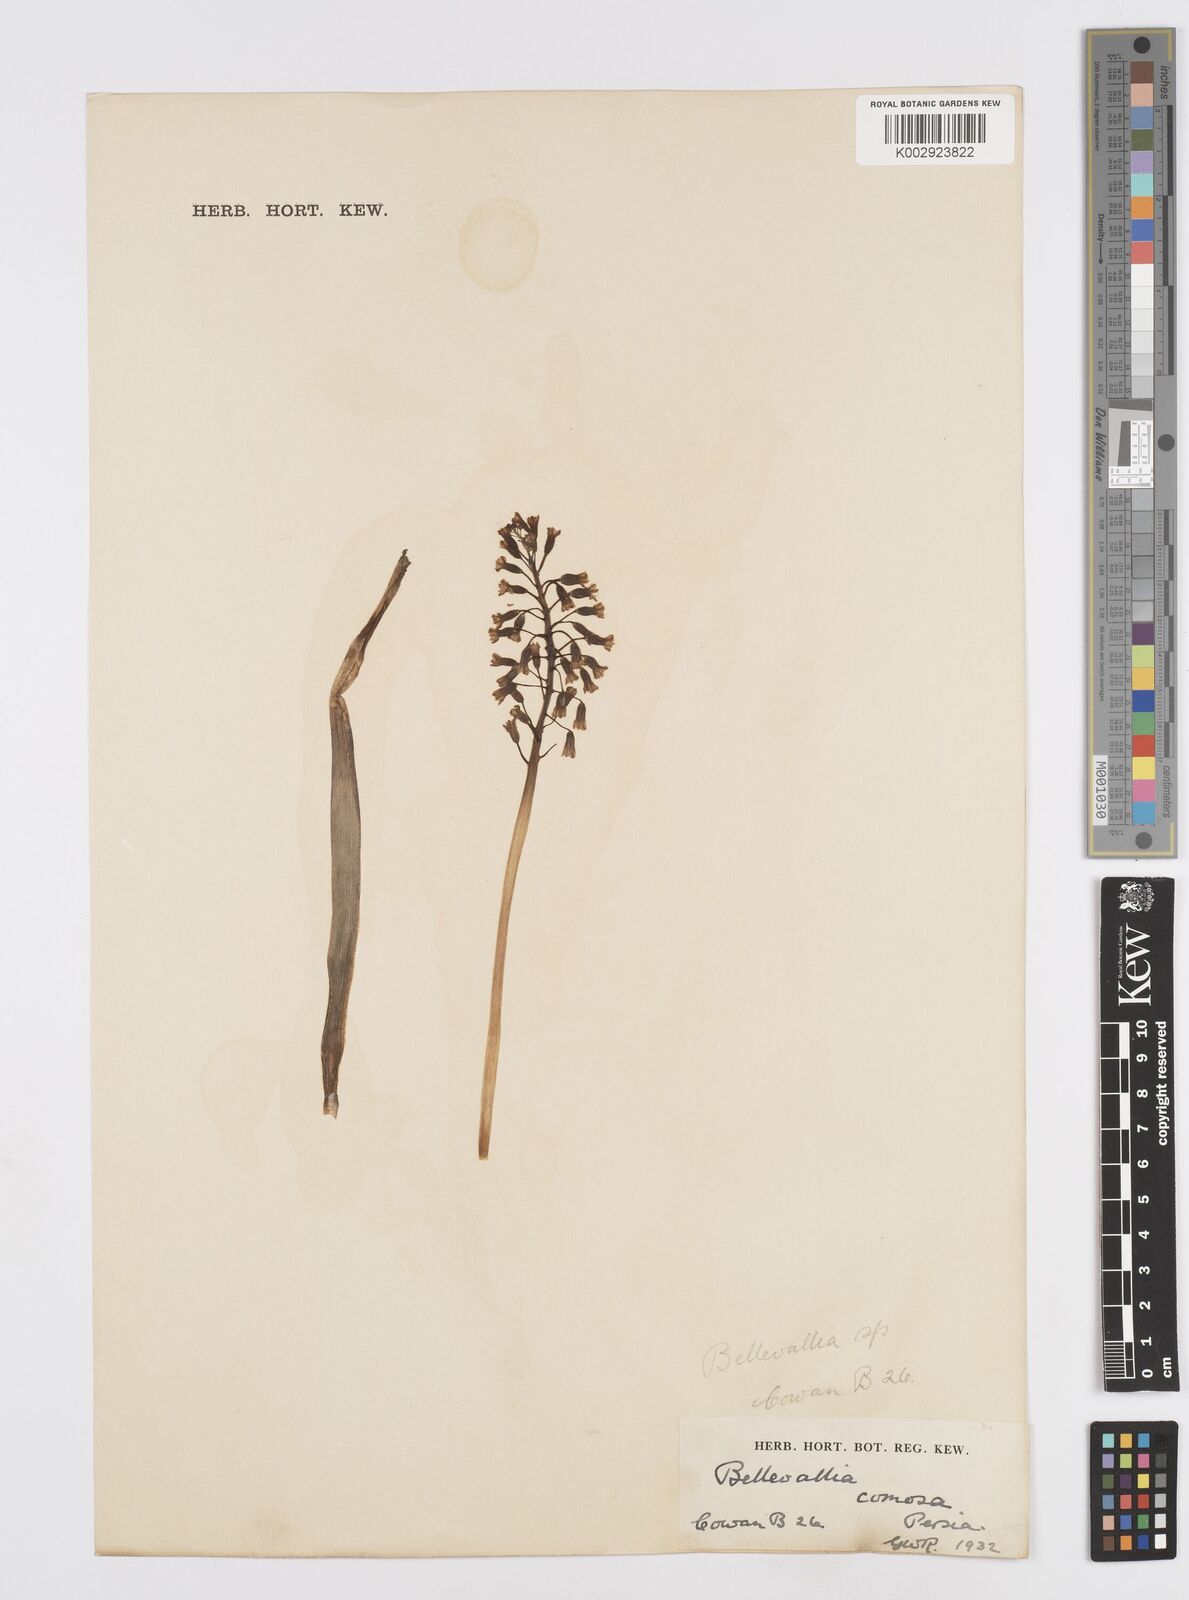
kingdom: Plantae
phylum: Tracheophyta
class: Liliopsida
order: Asparagales
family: Asparagaceae
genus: Muscari
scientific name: Muscari comosum
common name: Tassel hyacinth
